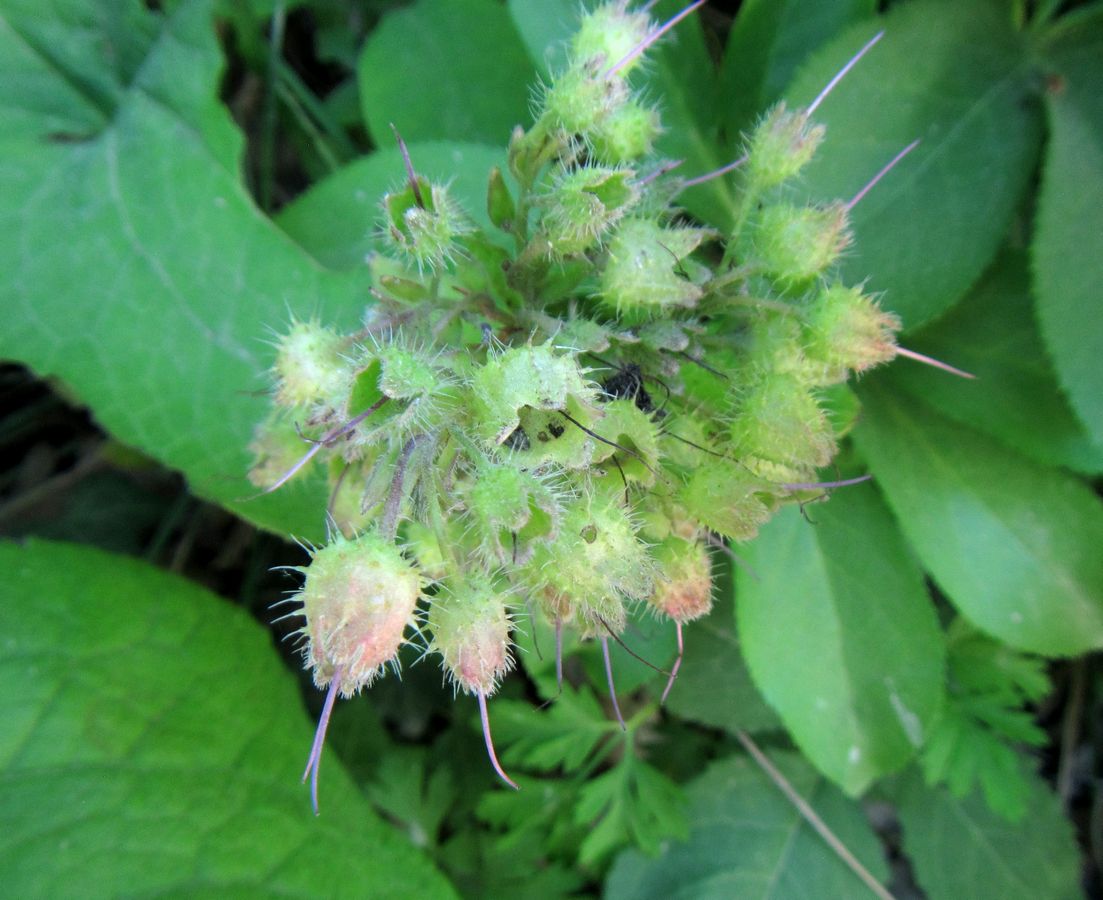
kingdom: Plantae
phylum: Tracheophyta
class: Magnoliopsida
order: Boraginales
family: Boraginaceae
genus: Trachystemon
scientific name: Trachystemon orientale
